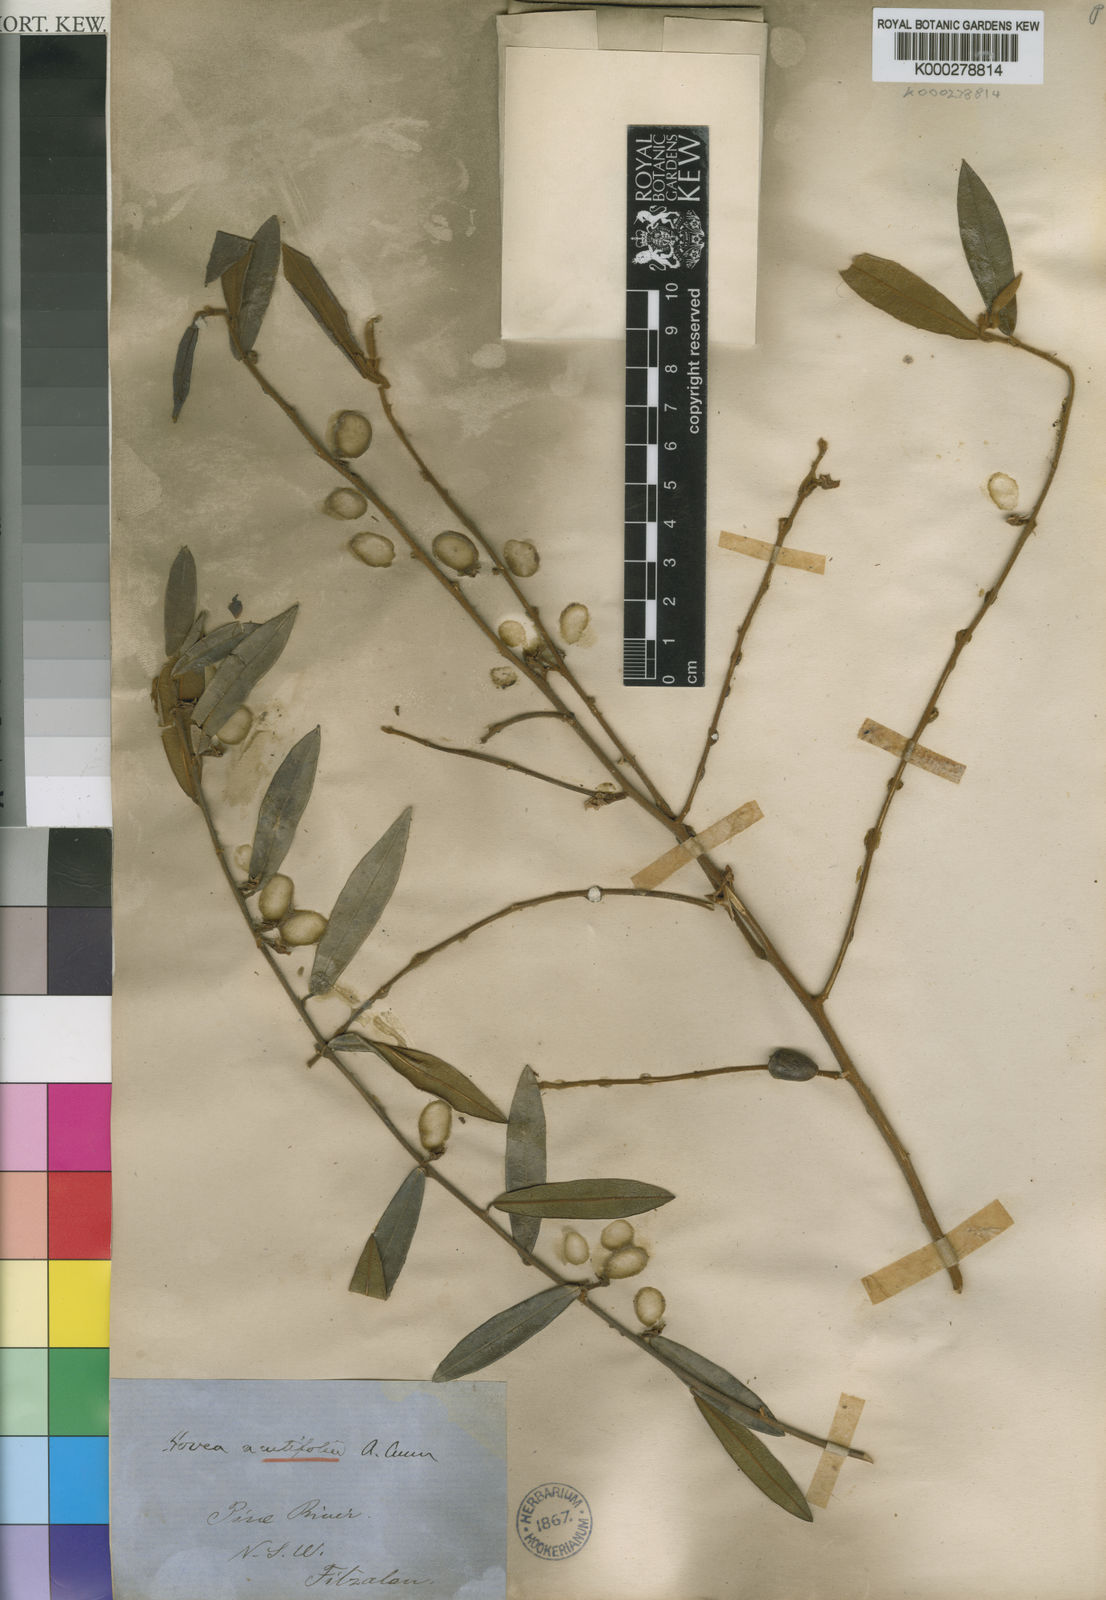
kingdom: Plantae
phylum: Tracheophyta
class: Magnoliopsida
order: Fabales
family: Fabaceae
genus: Hovea
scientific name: Hovea acutifolia
